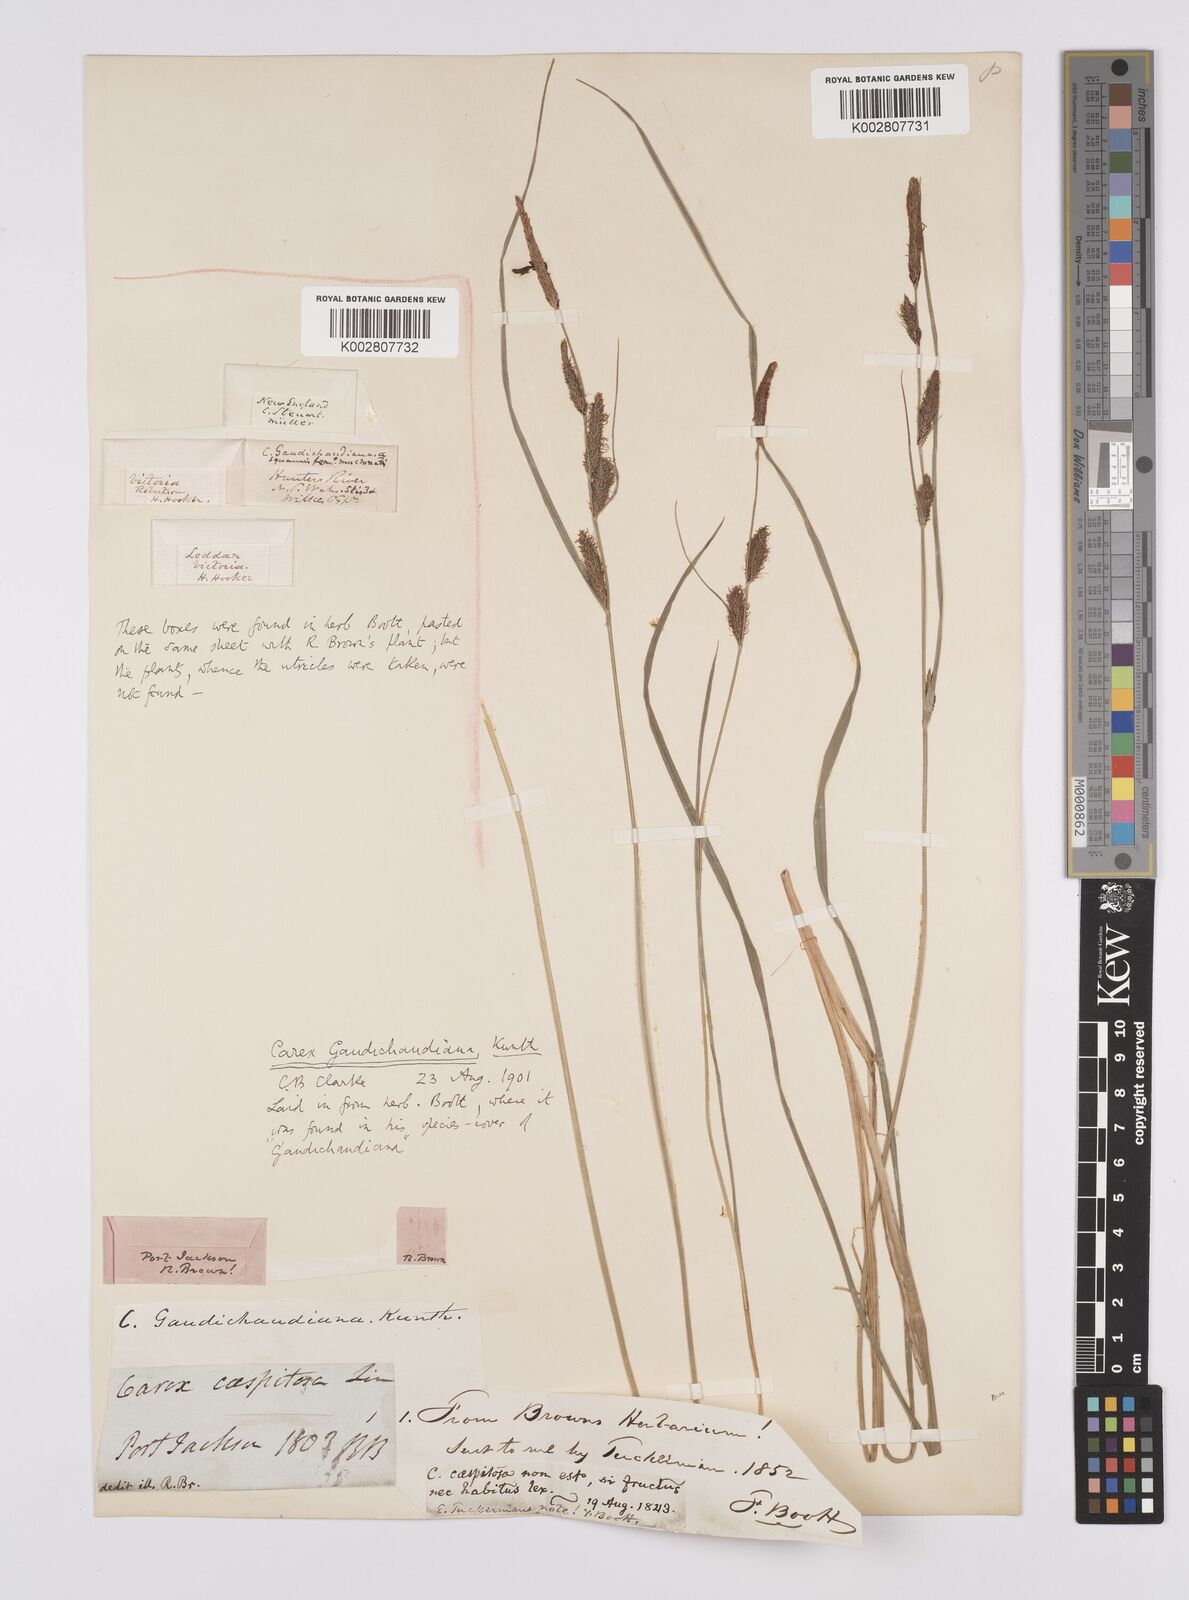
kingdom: Plantae
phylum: Tracheophyta
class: Liliopsida
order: Poales
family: Cyperaceae
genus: Carex
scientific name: Carex gaudichaudiana
